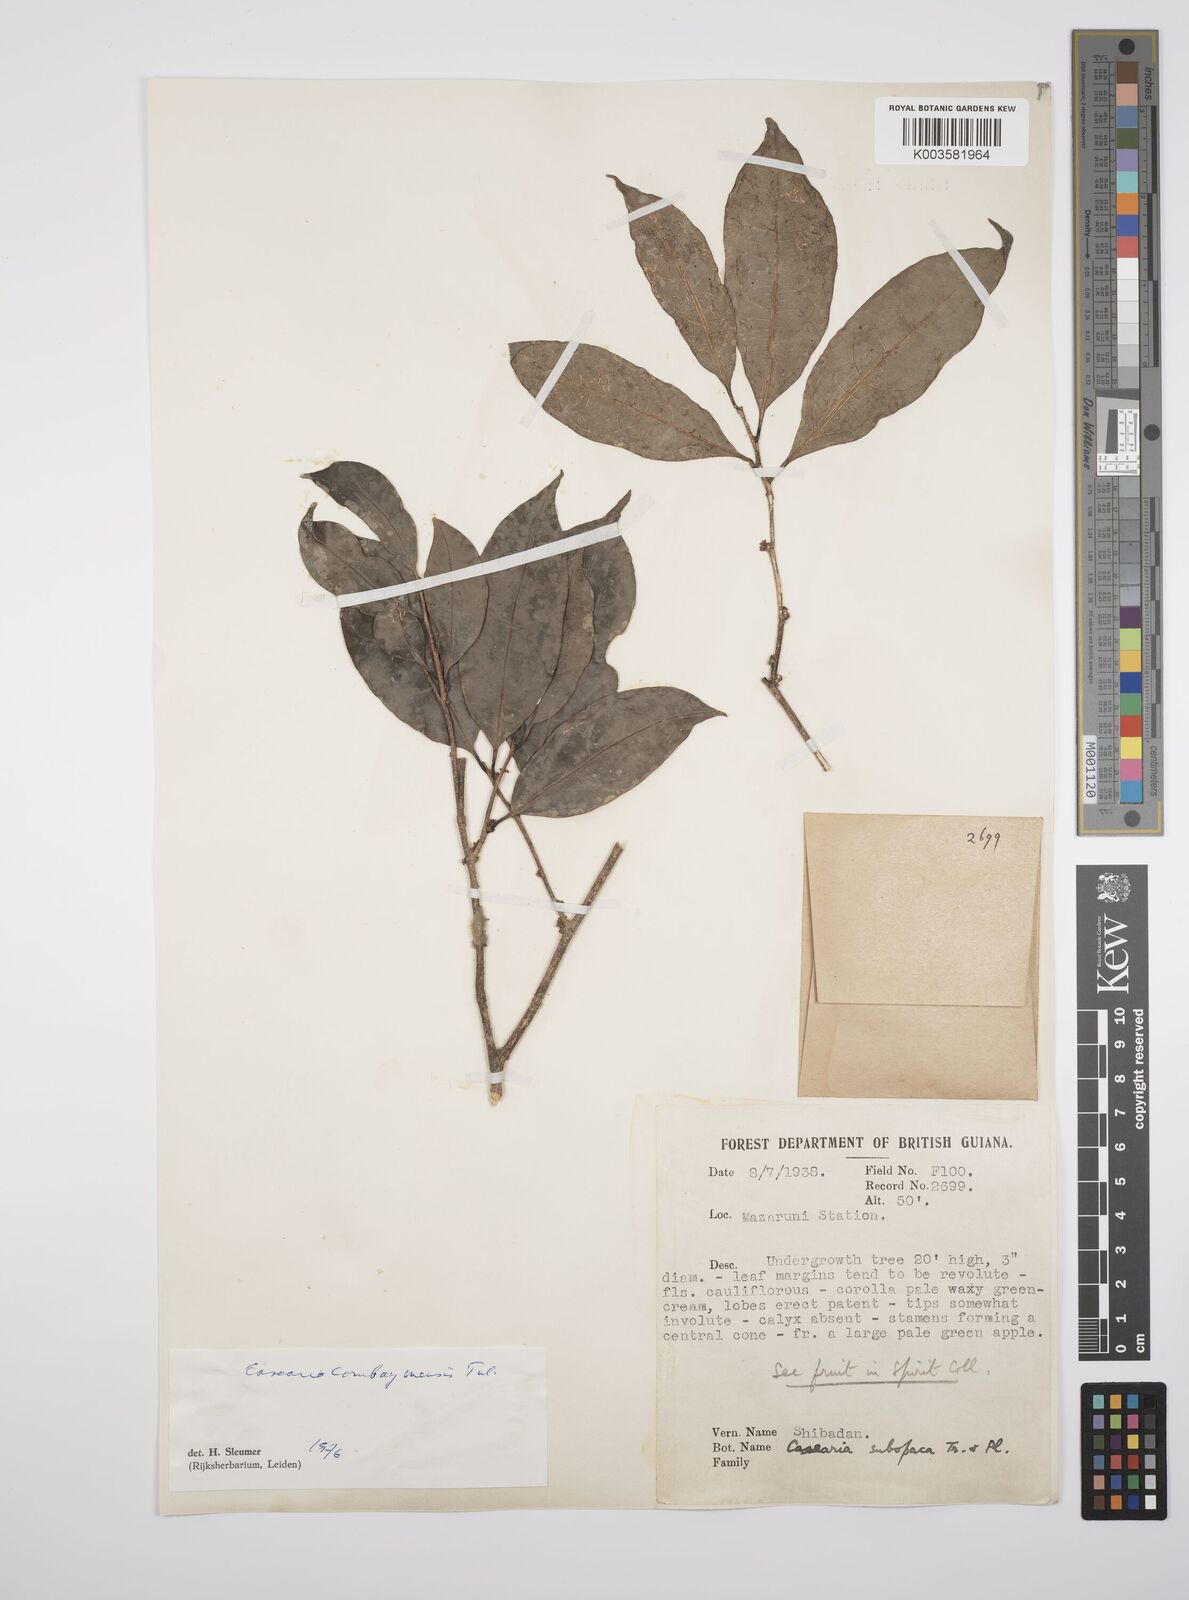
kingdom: Plantae
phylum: Tracheophyta
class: Magnoliopsida
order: Malpighiales
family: Salicaceae
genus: Casearia
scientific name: Casearia combaymensis
